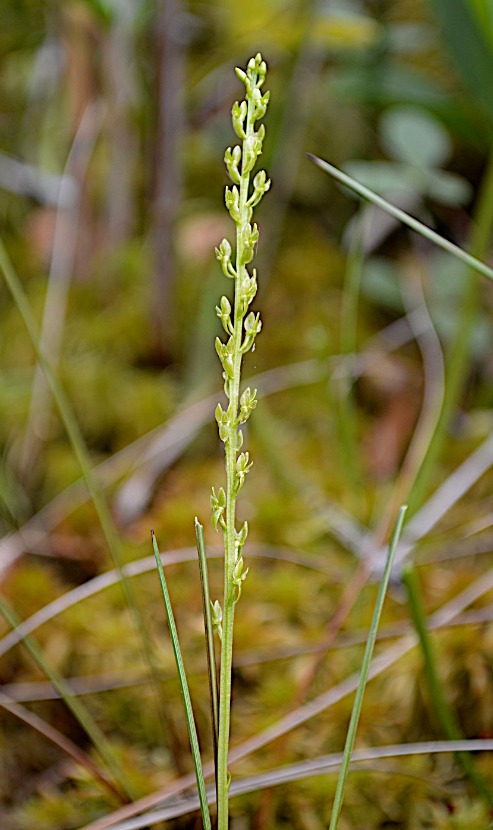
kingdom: Plantae
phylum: Tracheophyta
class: Liliopsida
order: Asparagales
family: Orchidaceae
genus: Hammarbya
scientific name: Hammarbya paludosa
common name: Hjertelæbe
